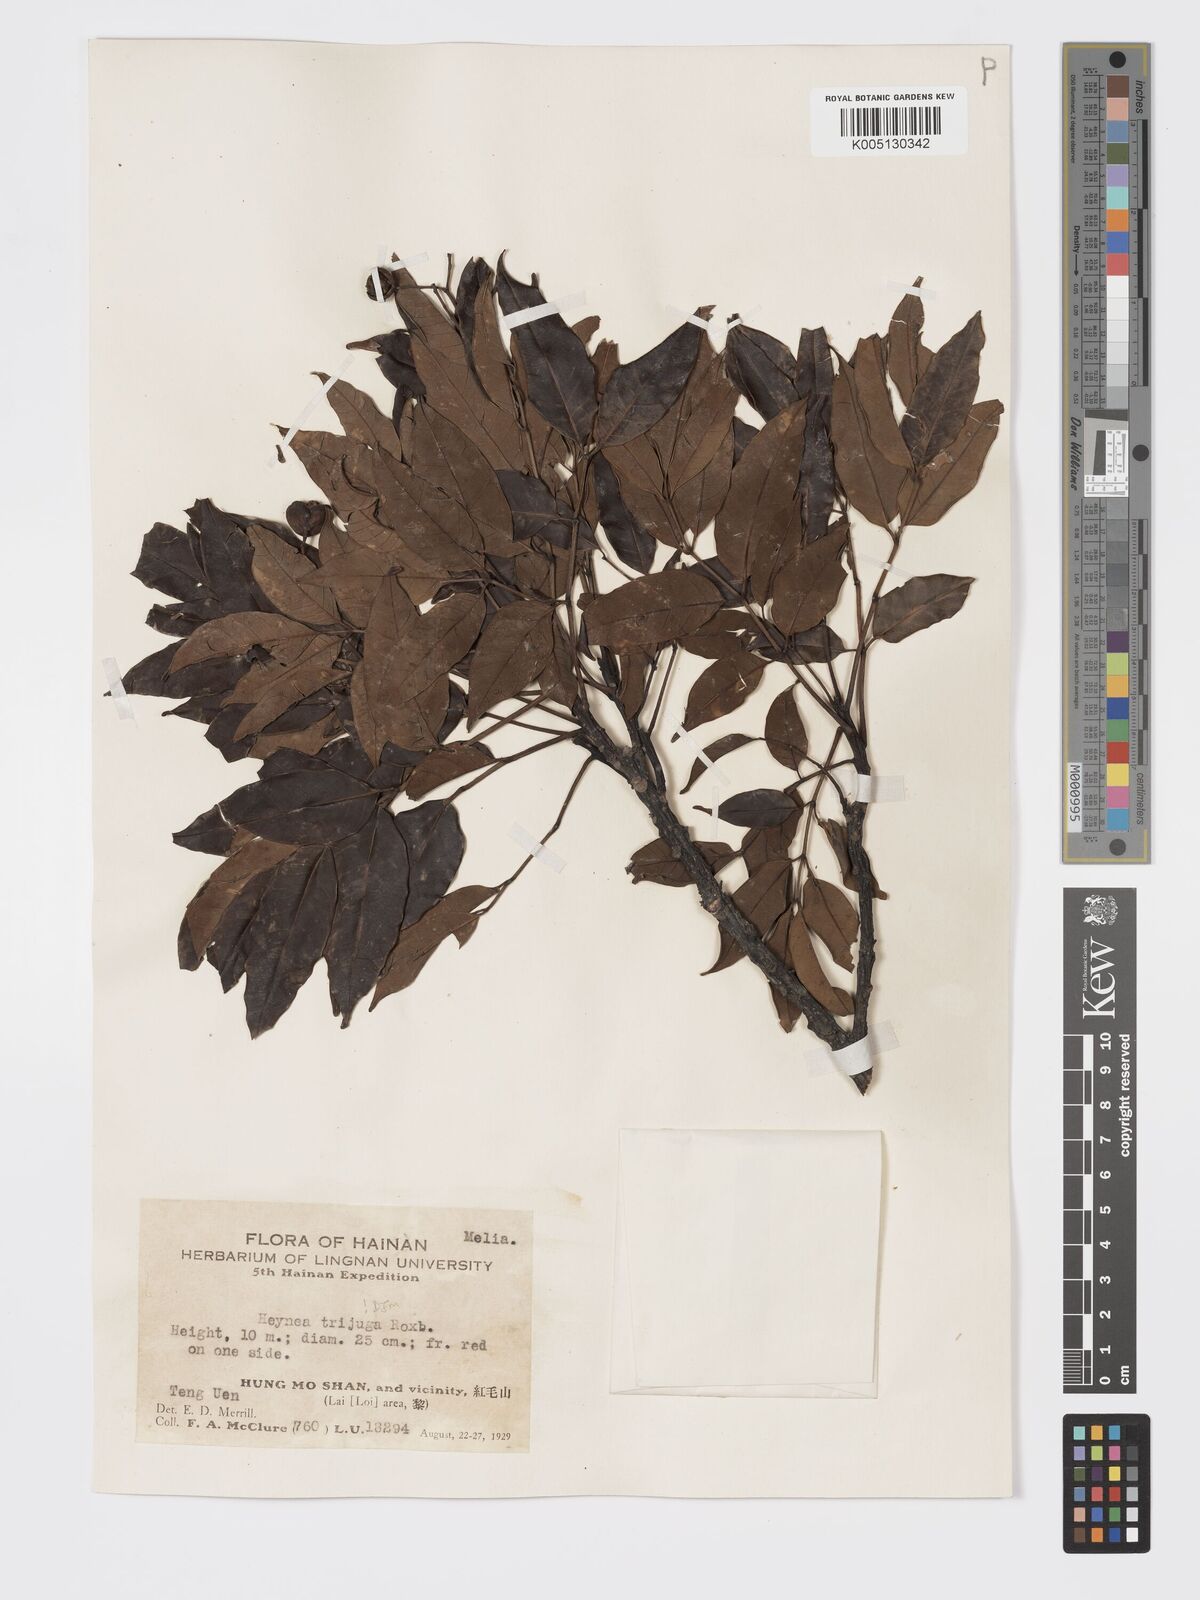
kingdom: Plantae
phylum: Tracheophyta
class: Magnoliopsida
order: Sapindales
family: Meliaceae
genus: Heynea
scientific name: Heynea trijuga
